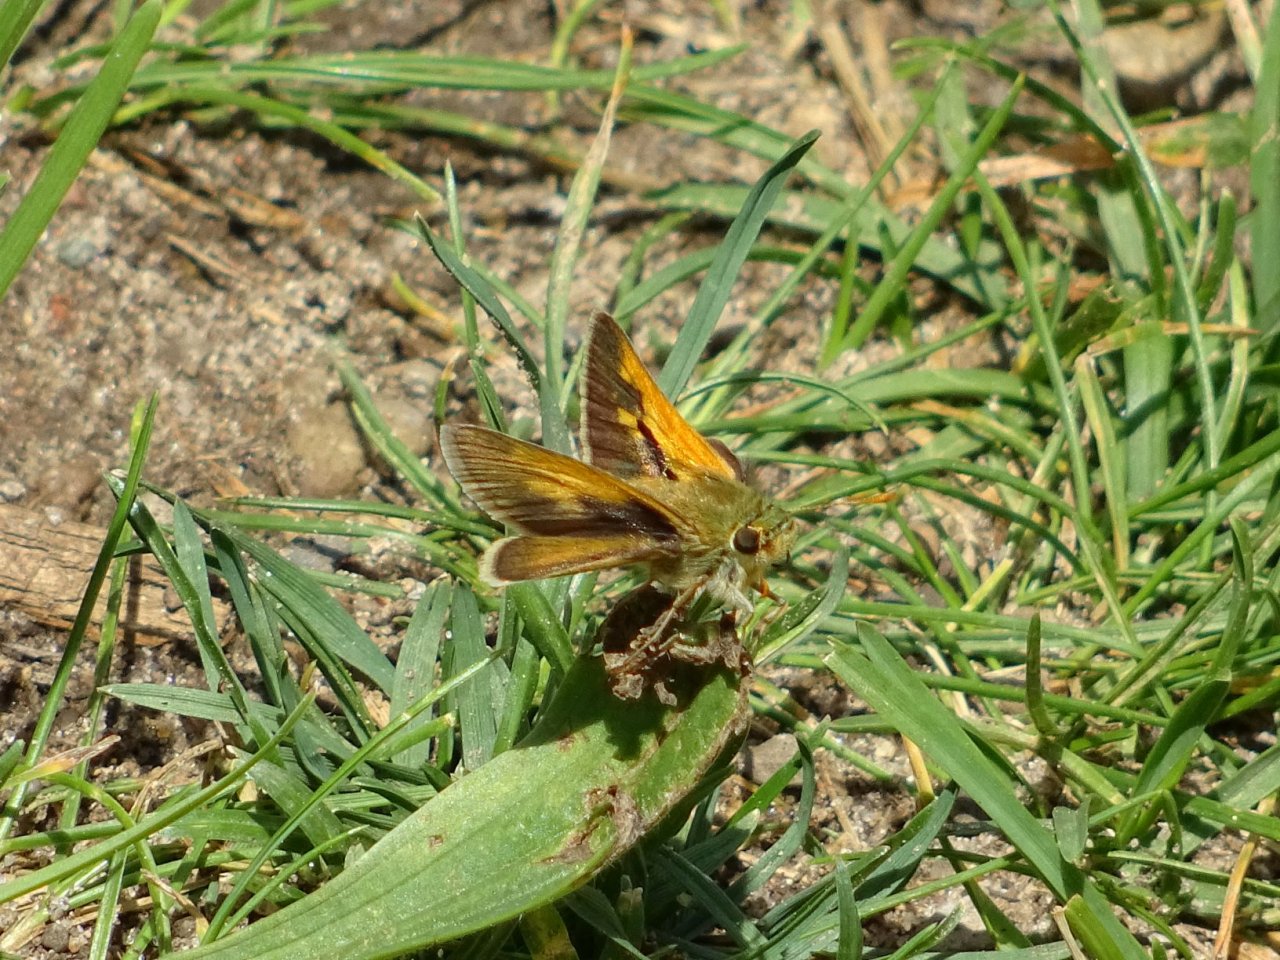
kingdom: Animalia
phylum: Arthropoda
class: Insecta
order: Lepidoptera
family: Hesperiidae
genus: Polites
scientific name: Polites themistocles
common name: Tawny-edged Skipper
